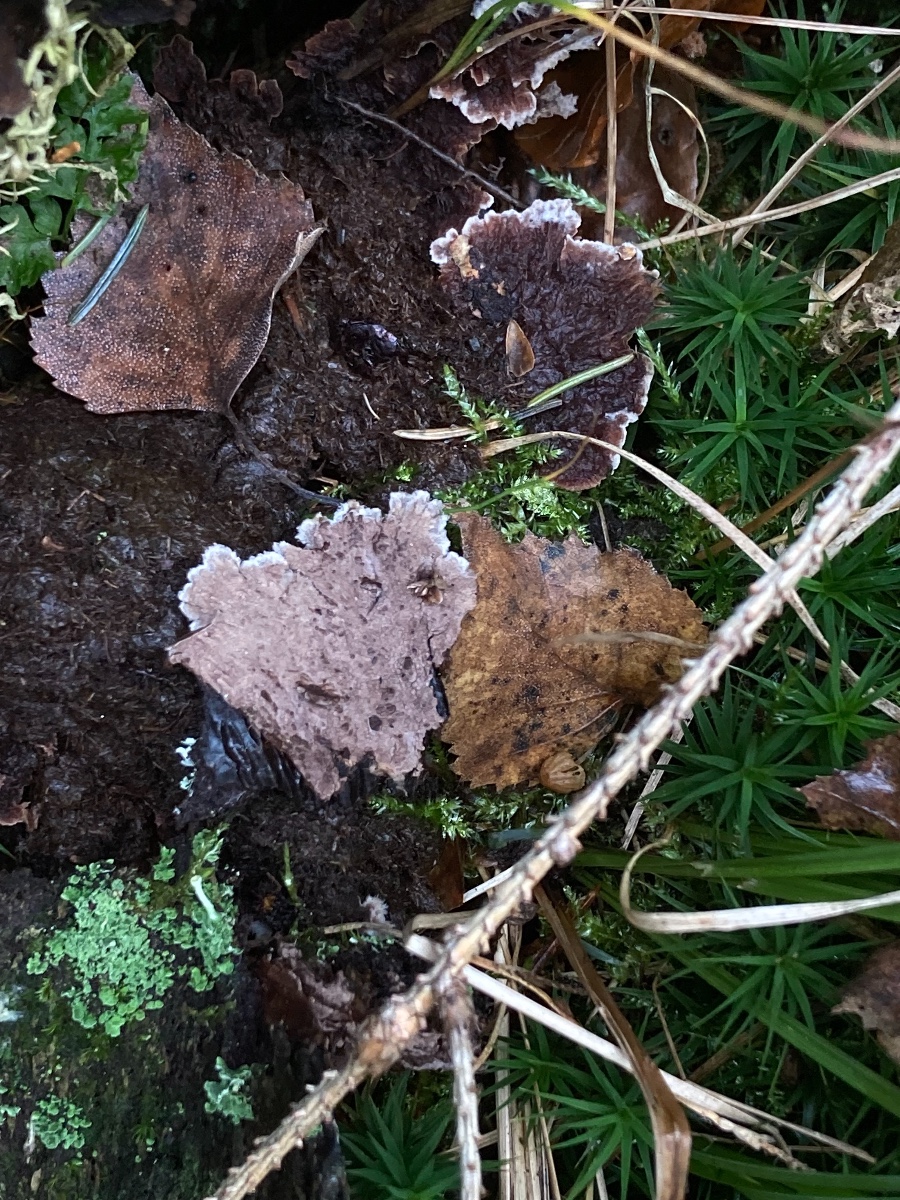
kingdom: Fungi
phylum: Basidiomycota
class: Agaricomycetes
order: Thelephorales
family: Thelephoraceae
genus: Thelephora
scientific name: Thelephora terrestris
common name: fliget frynsesvamp
